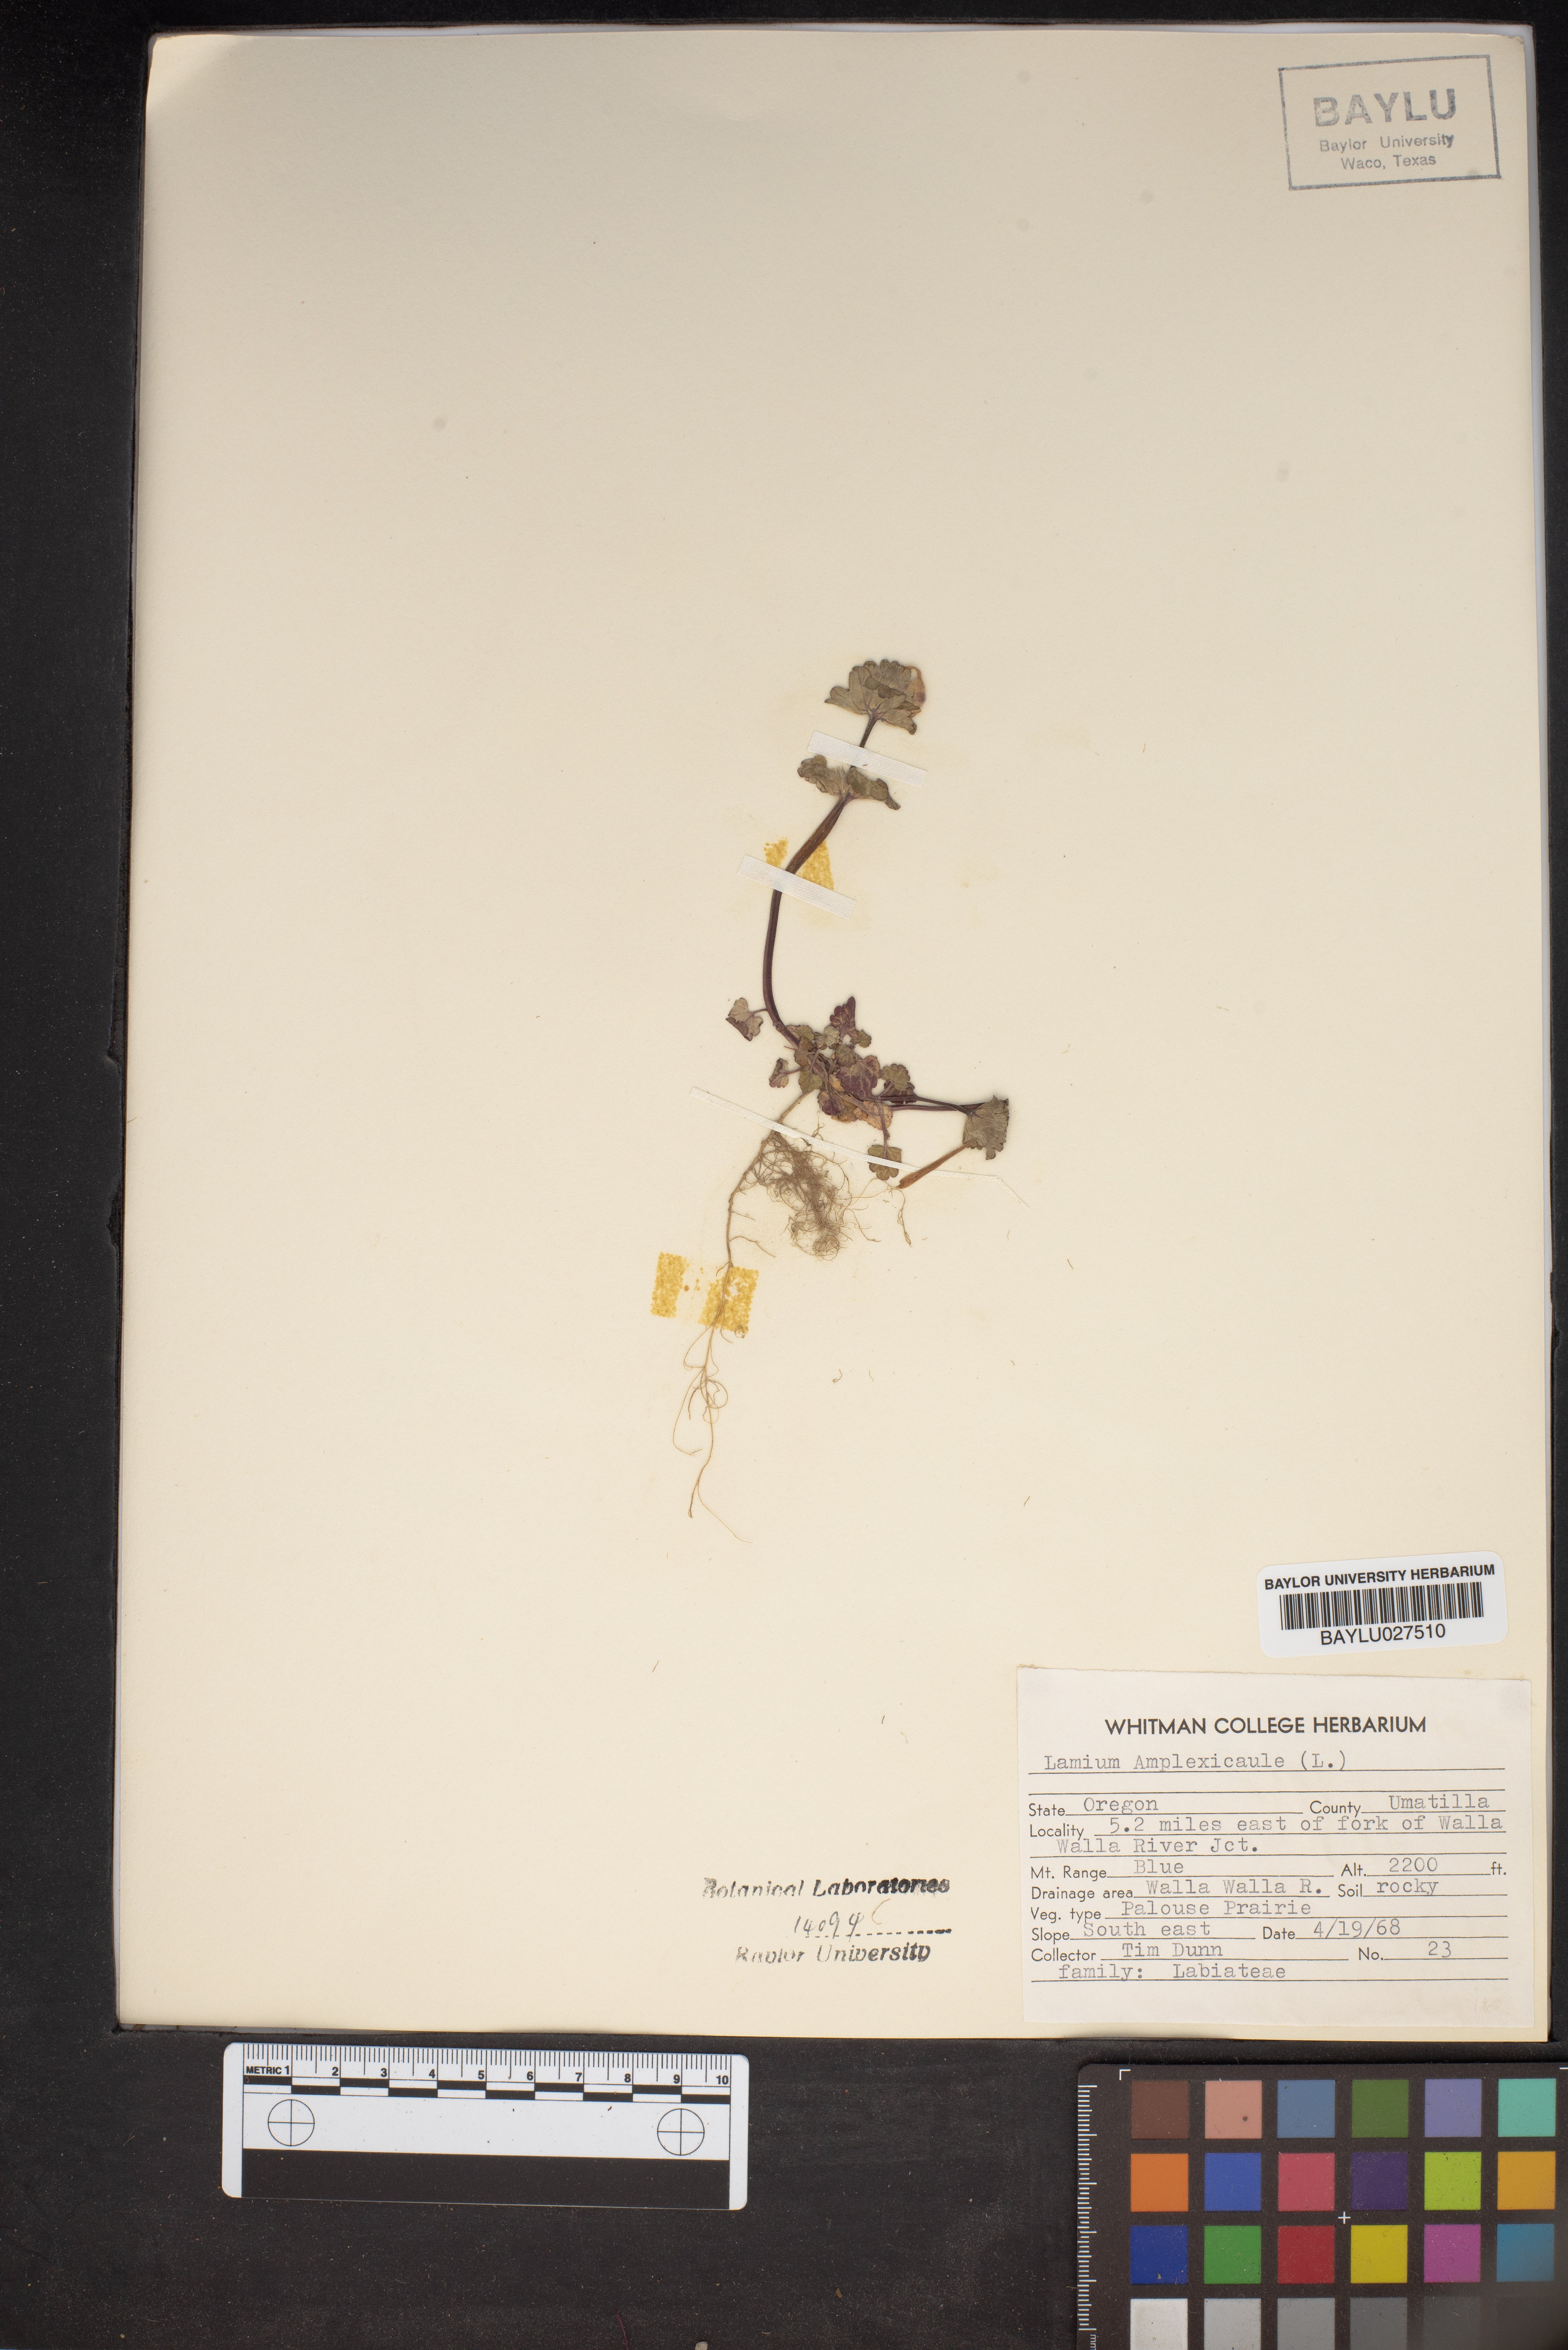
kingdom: Plantae
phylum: Tracheophyta
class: Magnoliopsida
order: Lamiales
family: Lamiaceae
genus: Lamium
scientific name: Lamium amplexicaule
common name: Henbit dead-nettle
